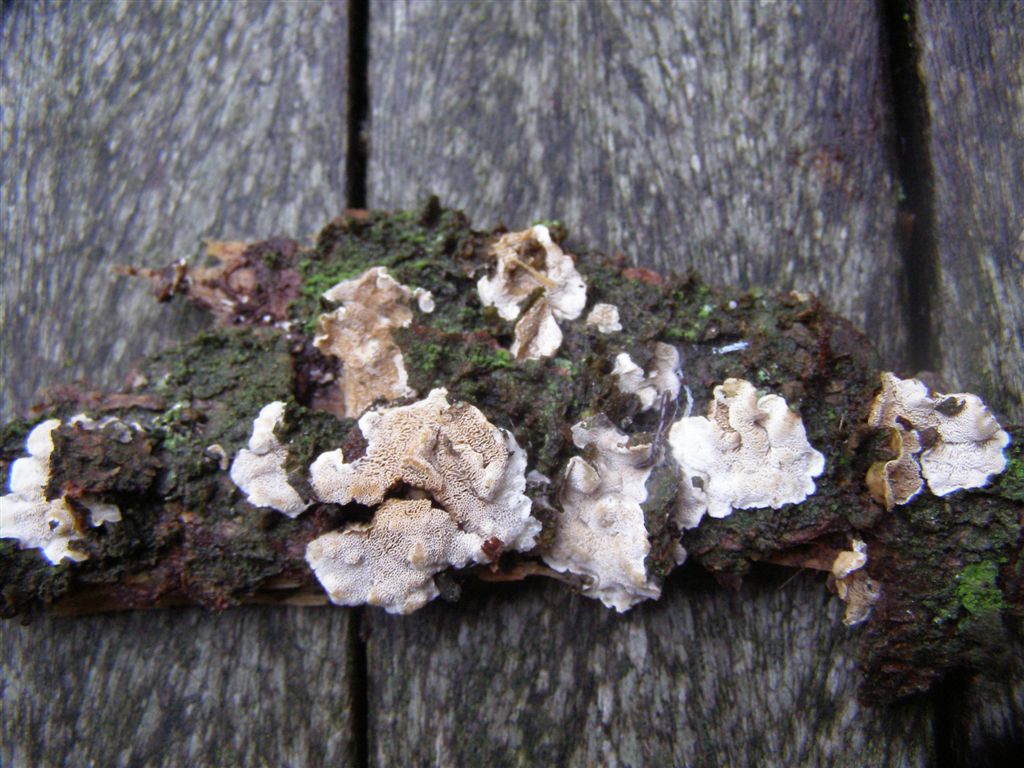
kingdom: Fungi
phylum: Basidiomycota
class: Agaricomycetes
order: Polyporales
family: Incrustoporiaceae
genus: Skeletocutis
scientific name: Skeletocutis carneogrisea
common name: rødgrå krystalporesvamp
